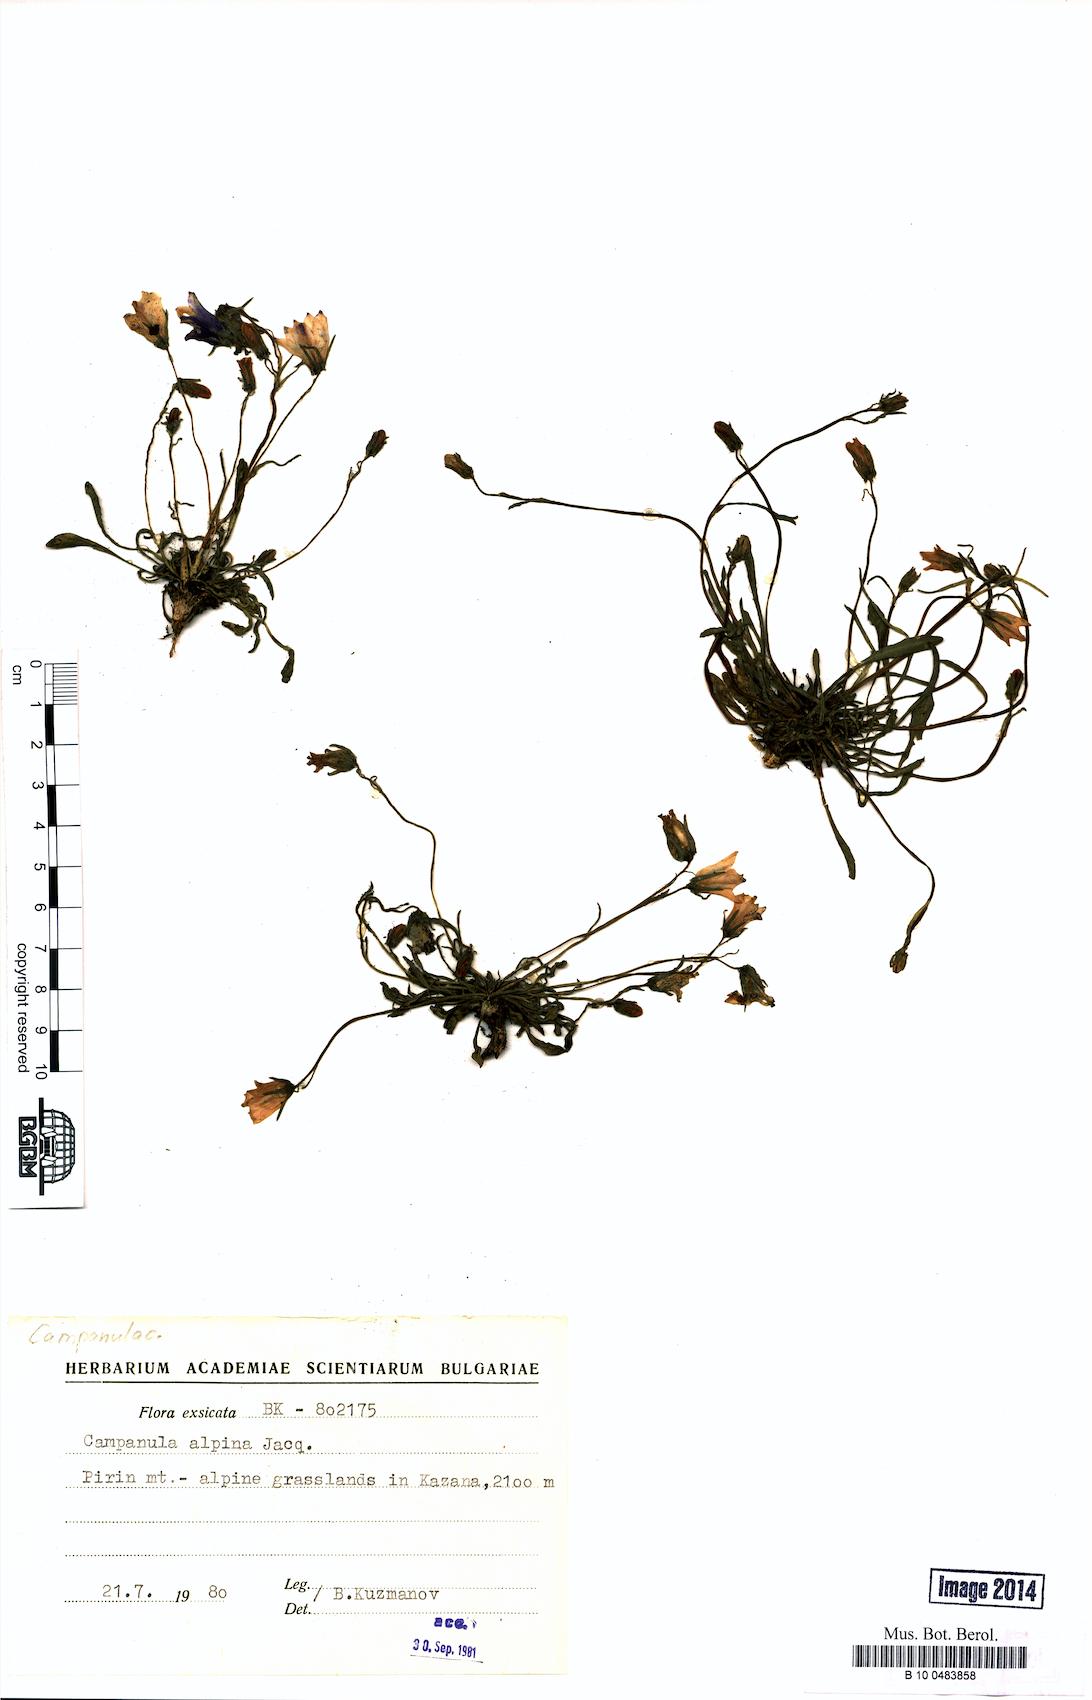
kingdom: Plantae
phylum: Tracheophyta
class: Magnoliopsida
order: Asterales
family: Campanulaceae
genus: Campanula
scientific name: Campanula alpina
